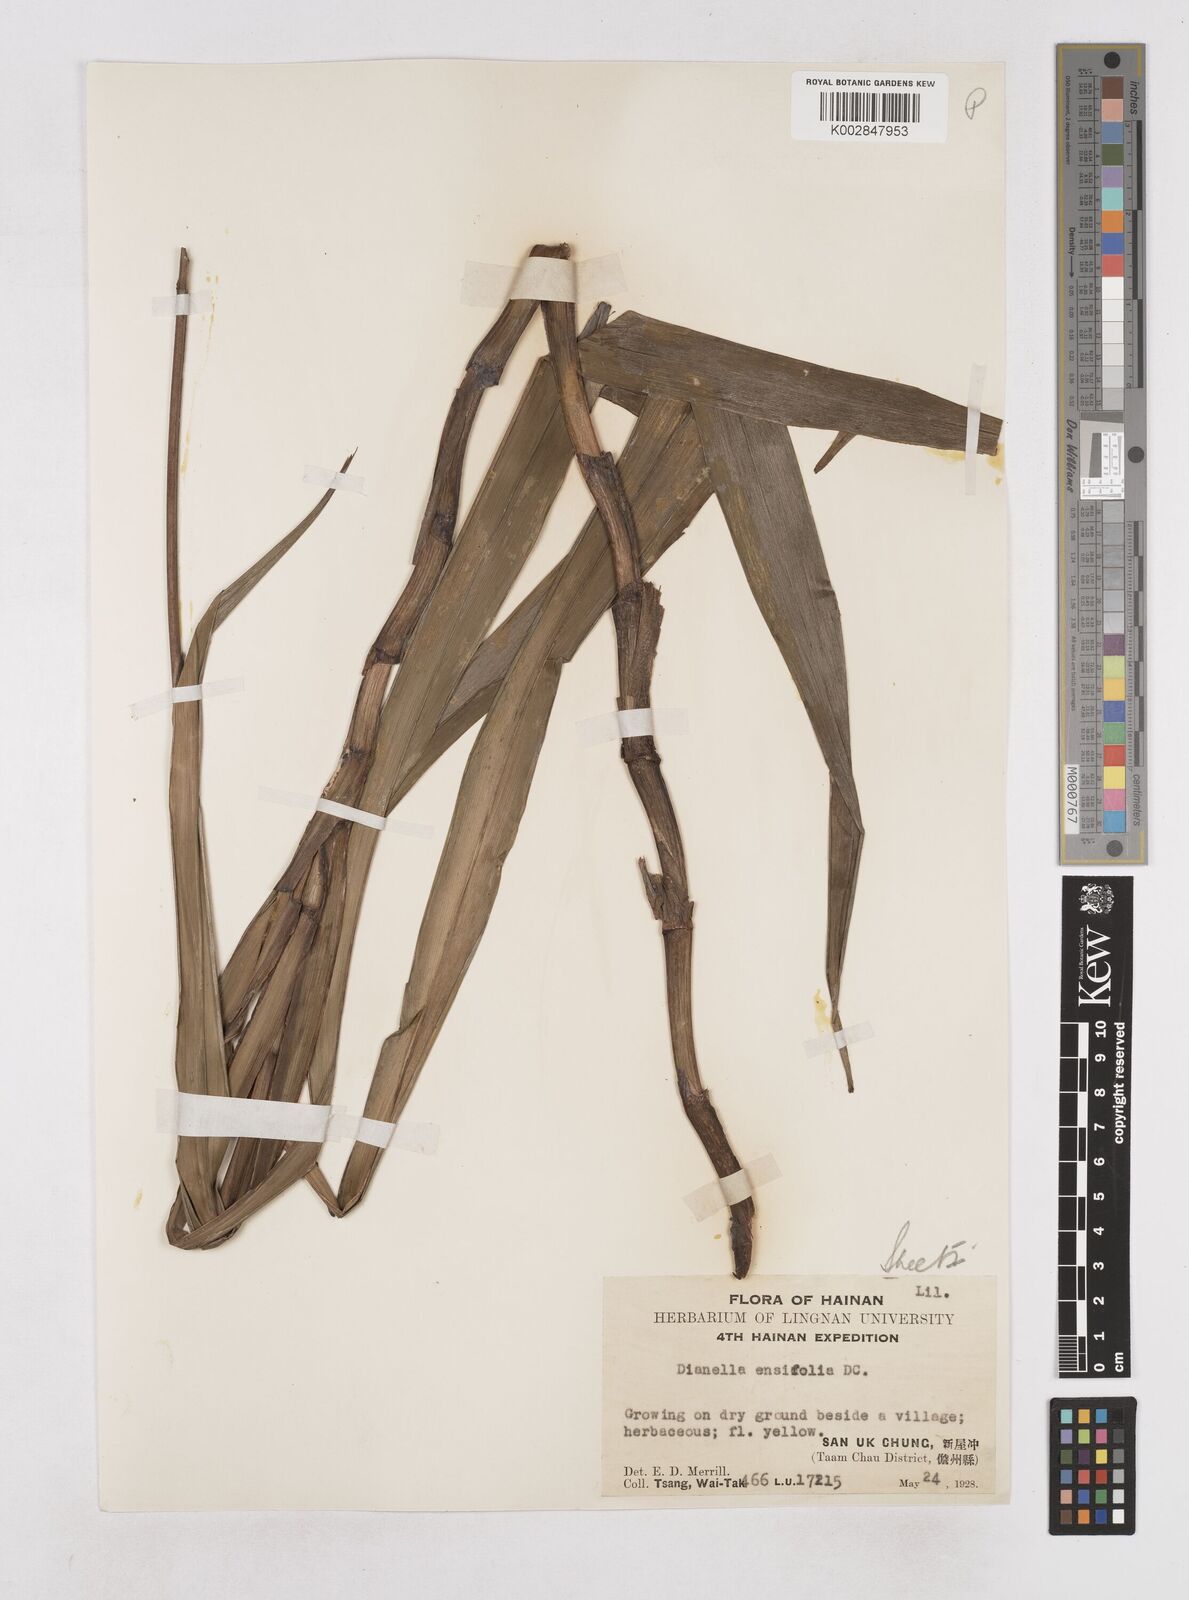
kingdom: Plantae
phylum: Tracheophyta
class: Liliopsida
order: Asparagales
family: Asphodelaceae
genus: Dianella
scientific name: Dianella ensifolia
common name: New zealand lilyplant
